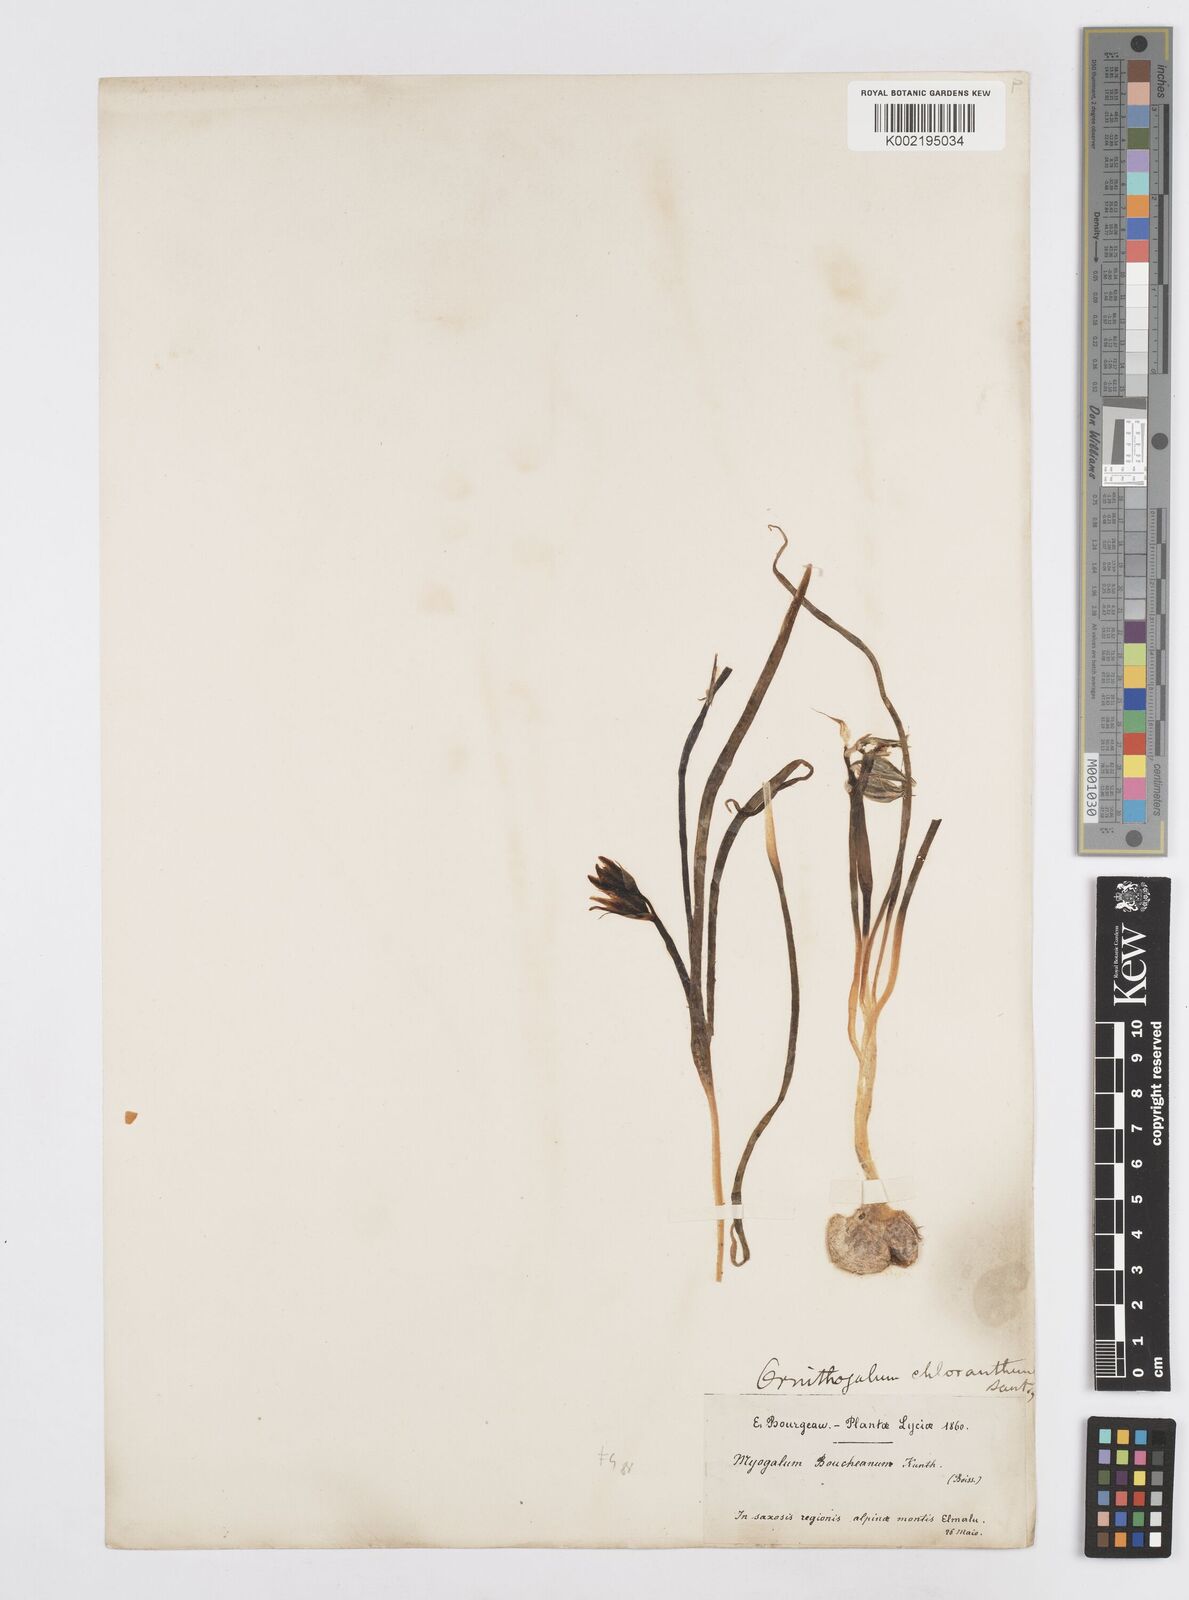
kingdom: Plantae
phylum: Tracheophyta
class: Liliopsida
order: Asparagales
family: Asparagaceae
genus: Ornithogalum
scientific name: Ornithogalum nutans
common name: Drooping star-of-bethlehem
